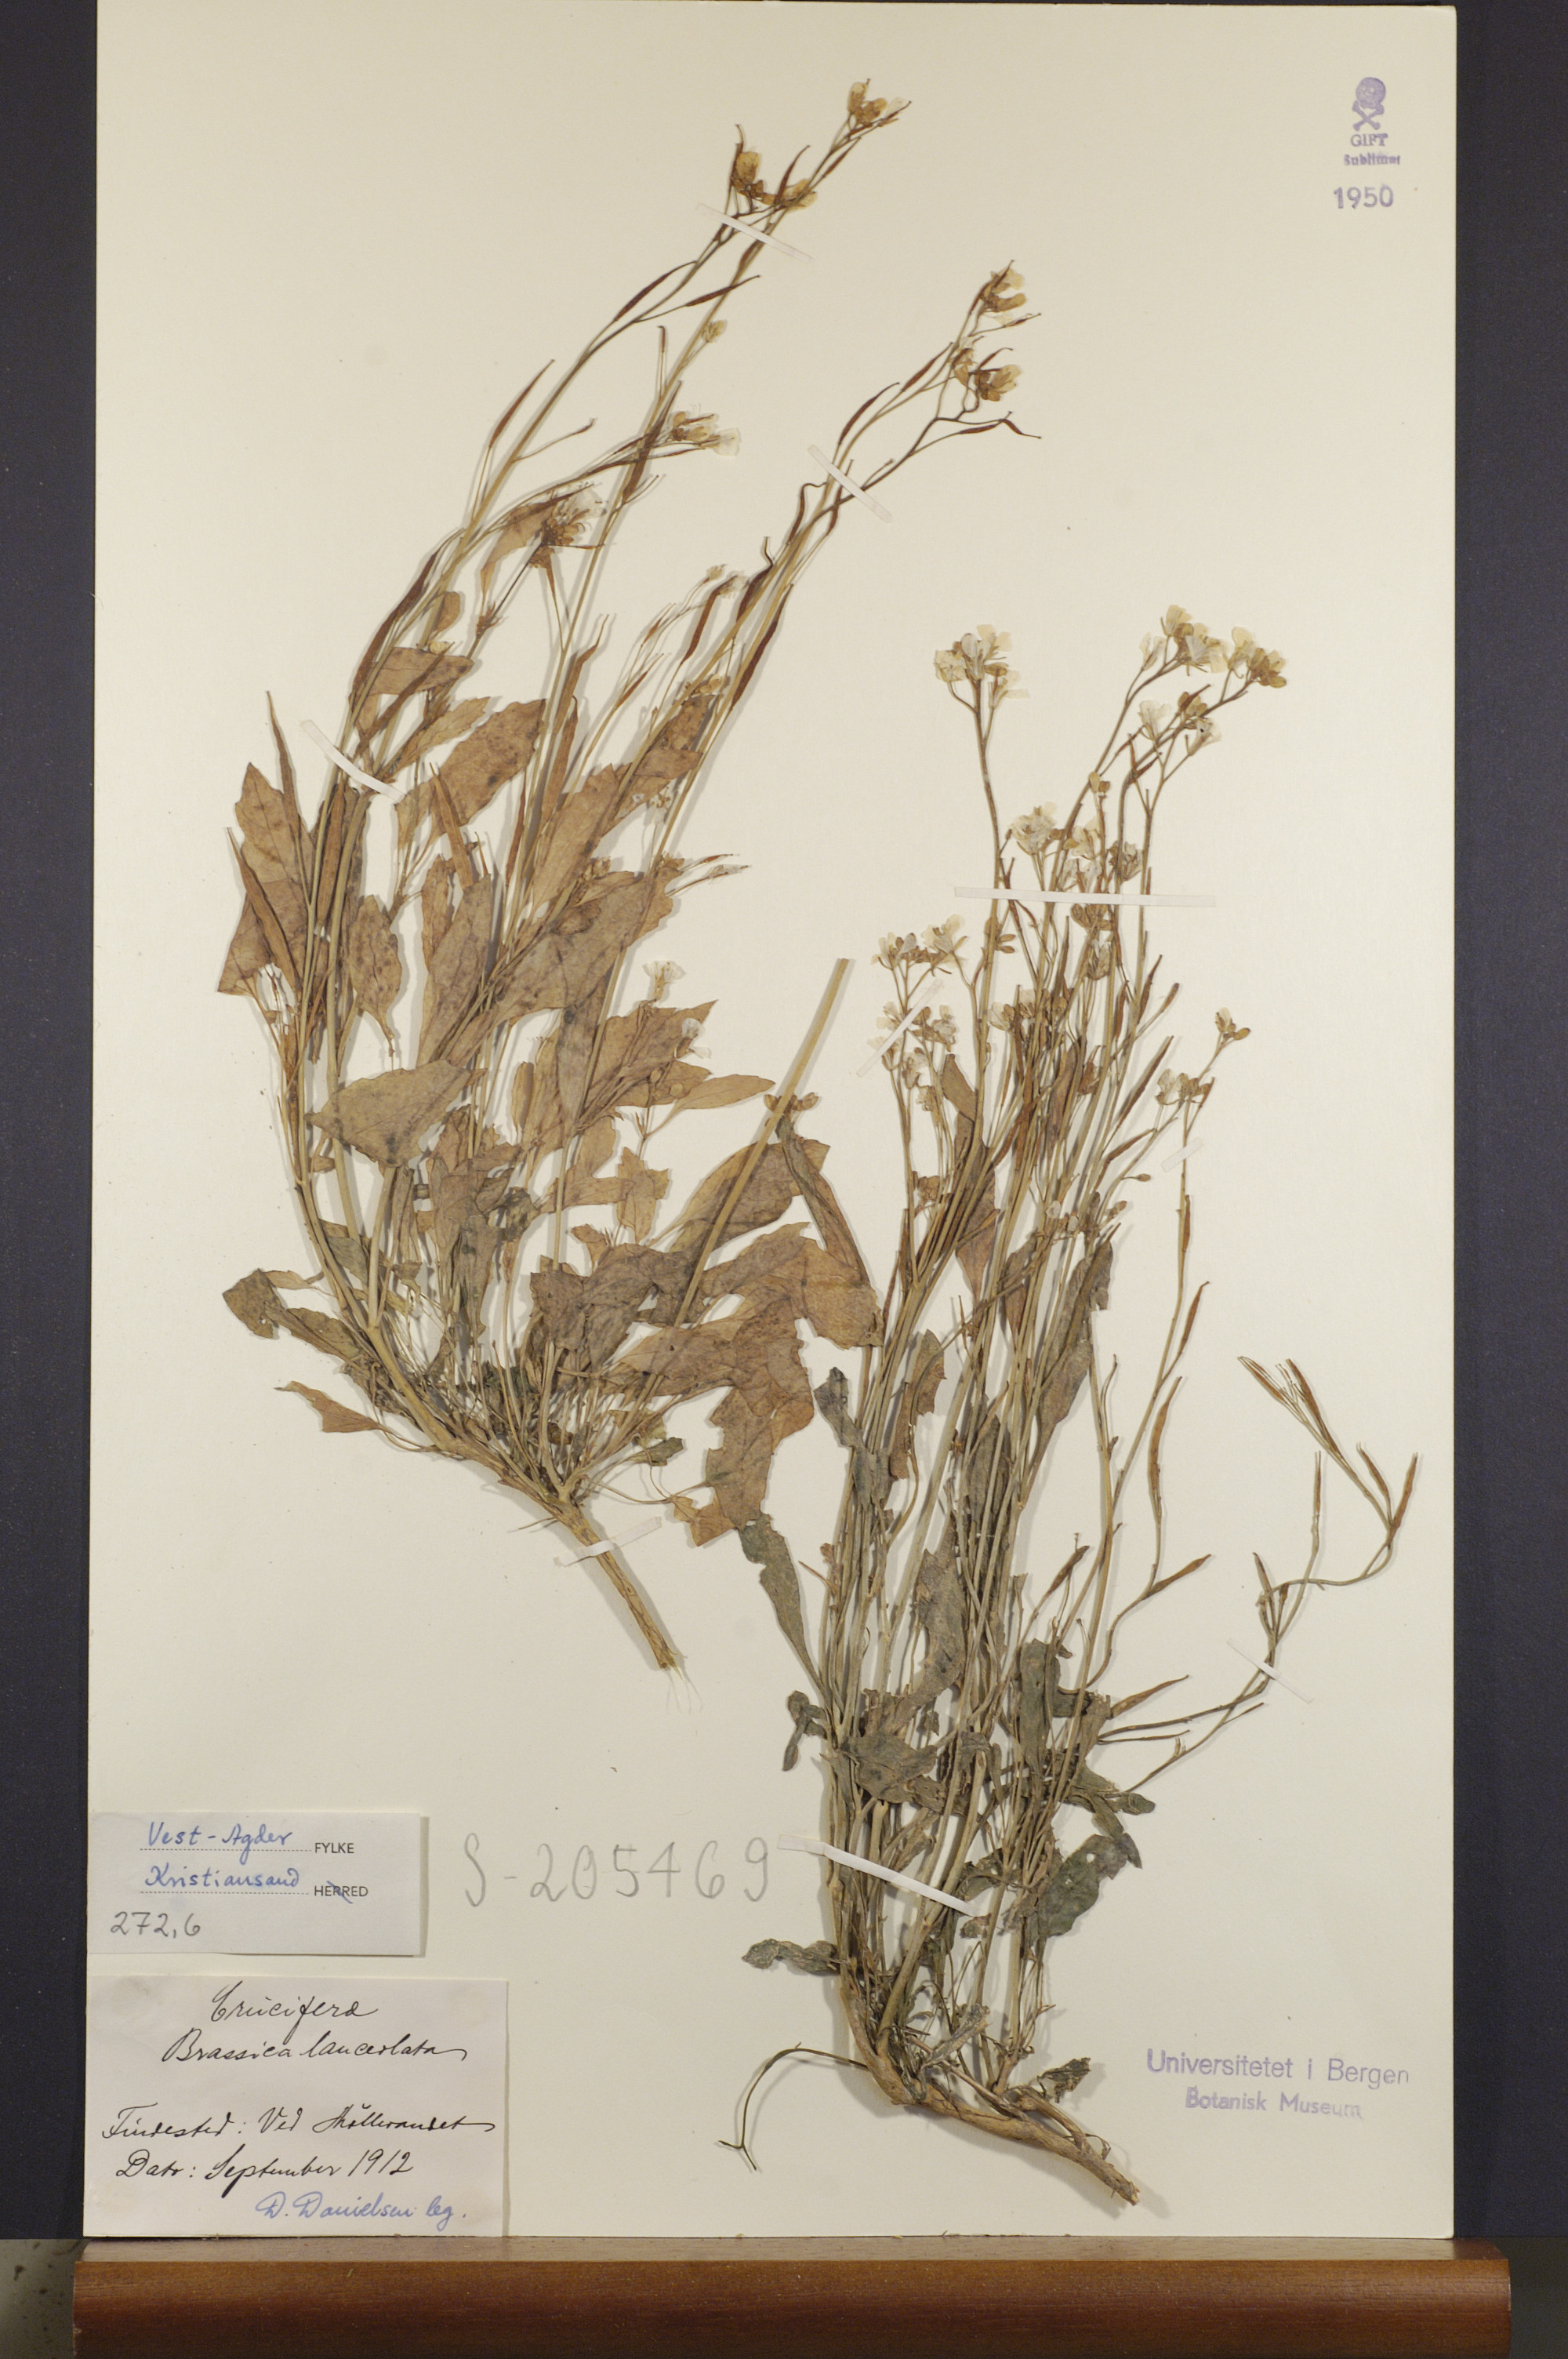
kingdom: Plantae
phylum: Tracheophyta
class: Magnoliopsida
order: Brassicales
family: Brassicaceae
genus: Brassica
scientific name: Brassica juncea
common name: Brown mustard
